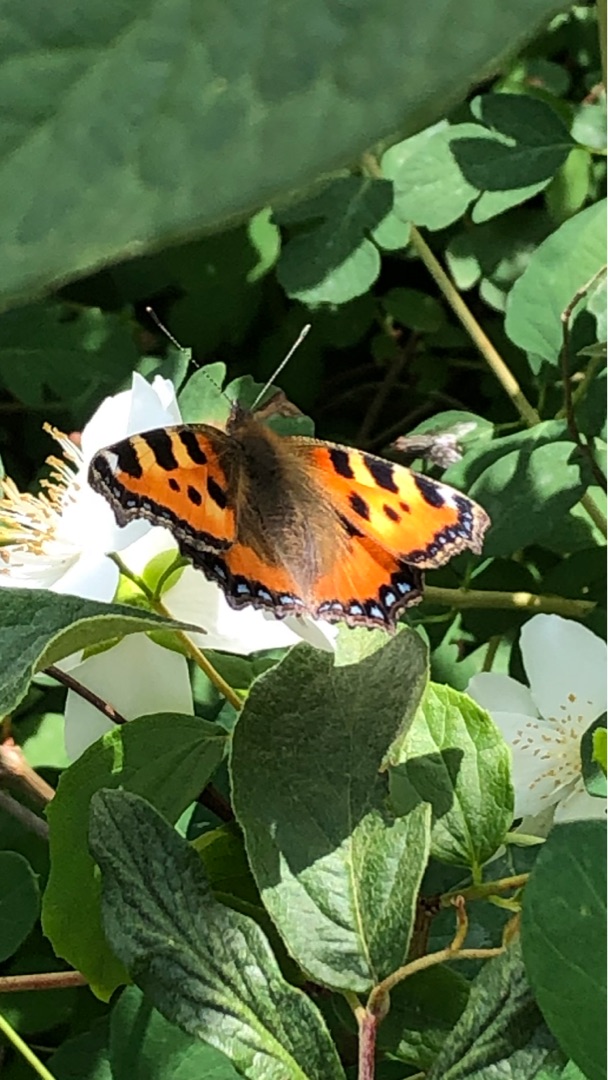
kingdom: Animalia
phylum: Arthropoda
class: Insecta
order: Lepidoptera
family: Nymphalidae
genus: Aglais
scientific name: Aglais urticae
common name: Nældens takvinge
